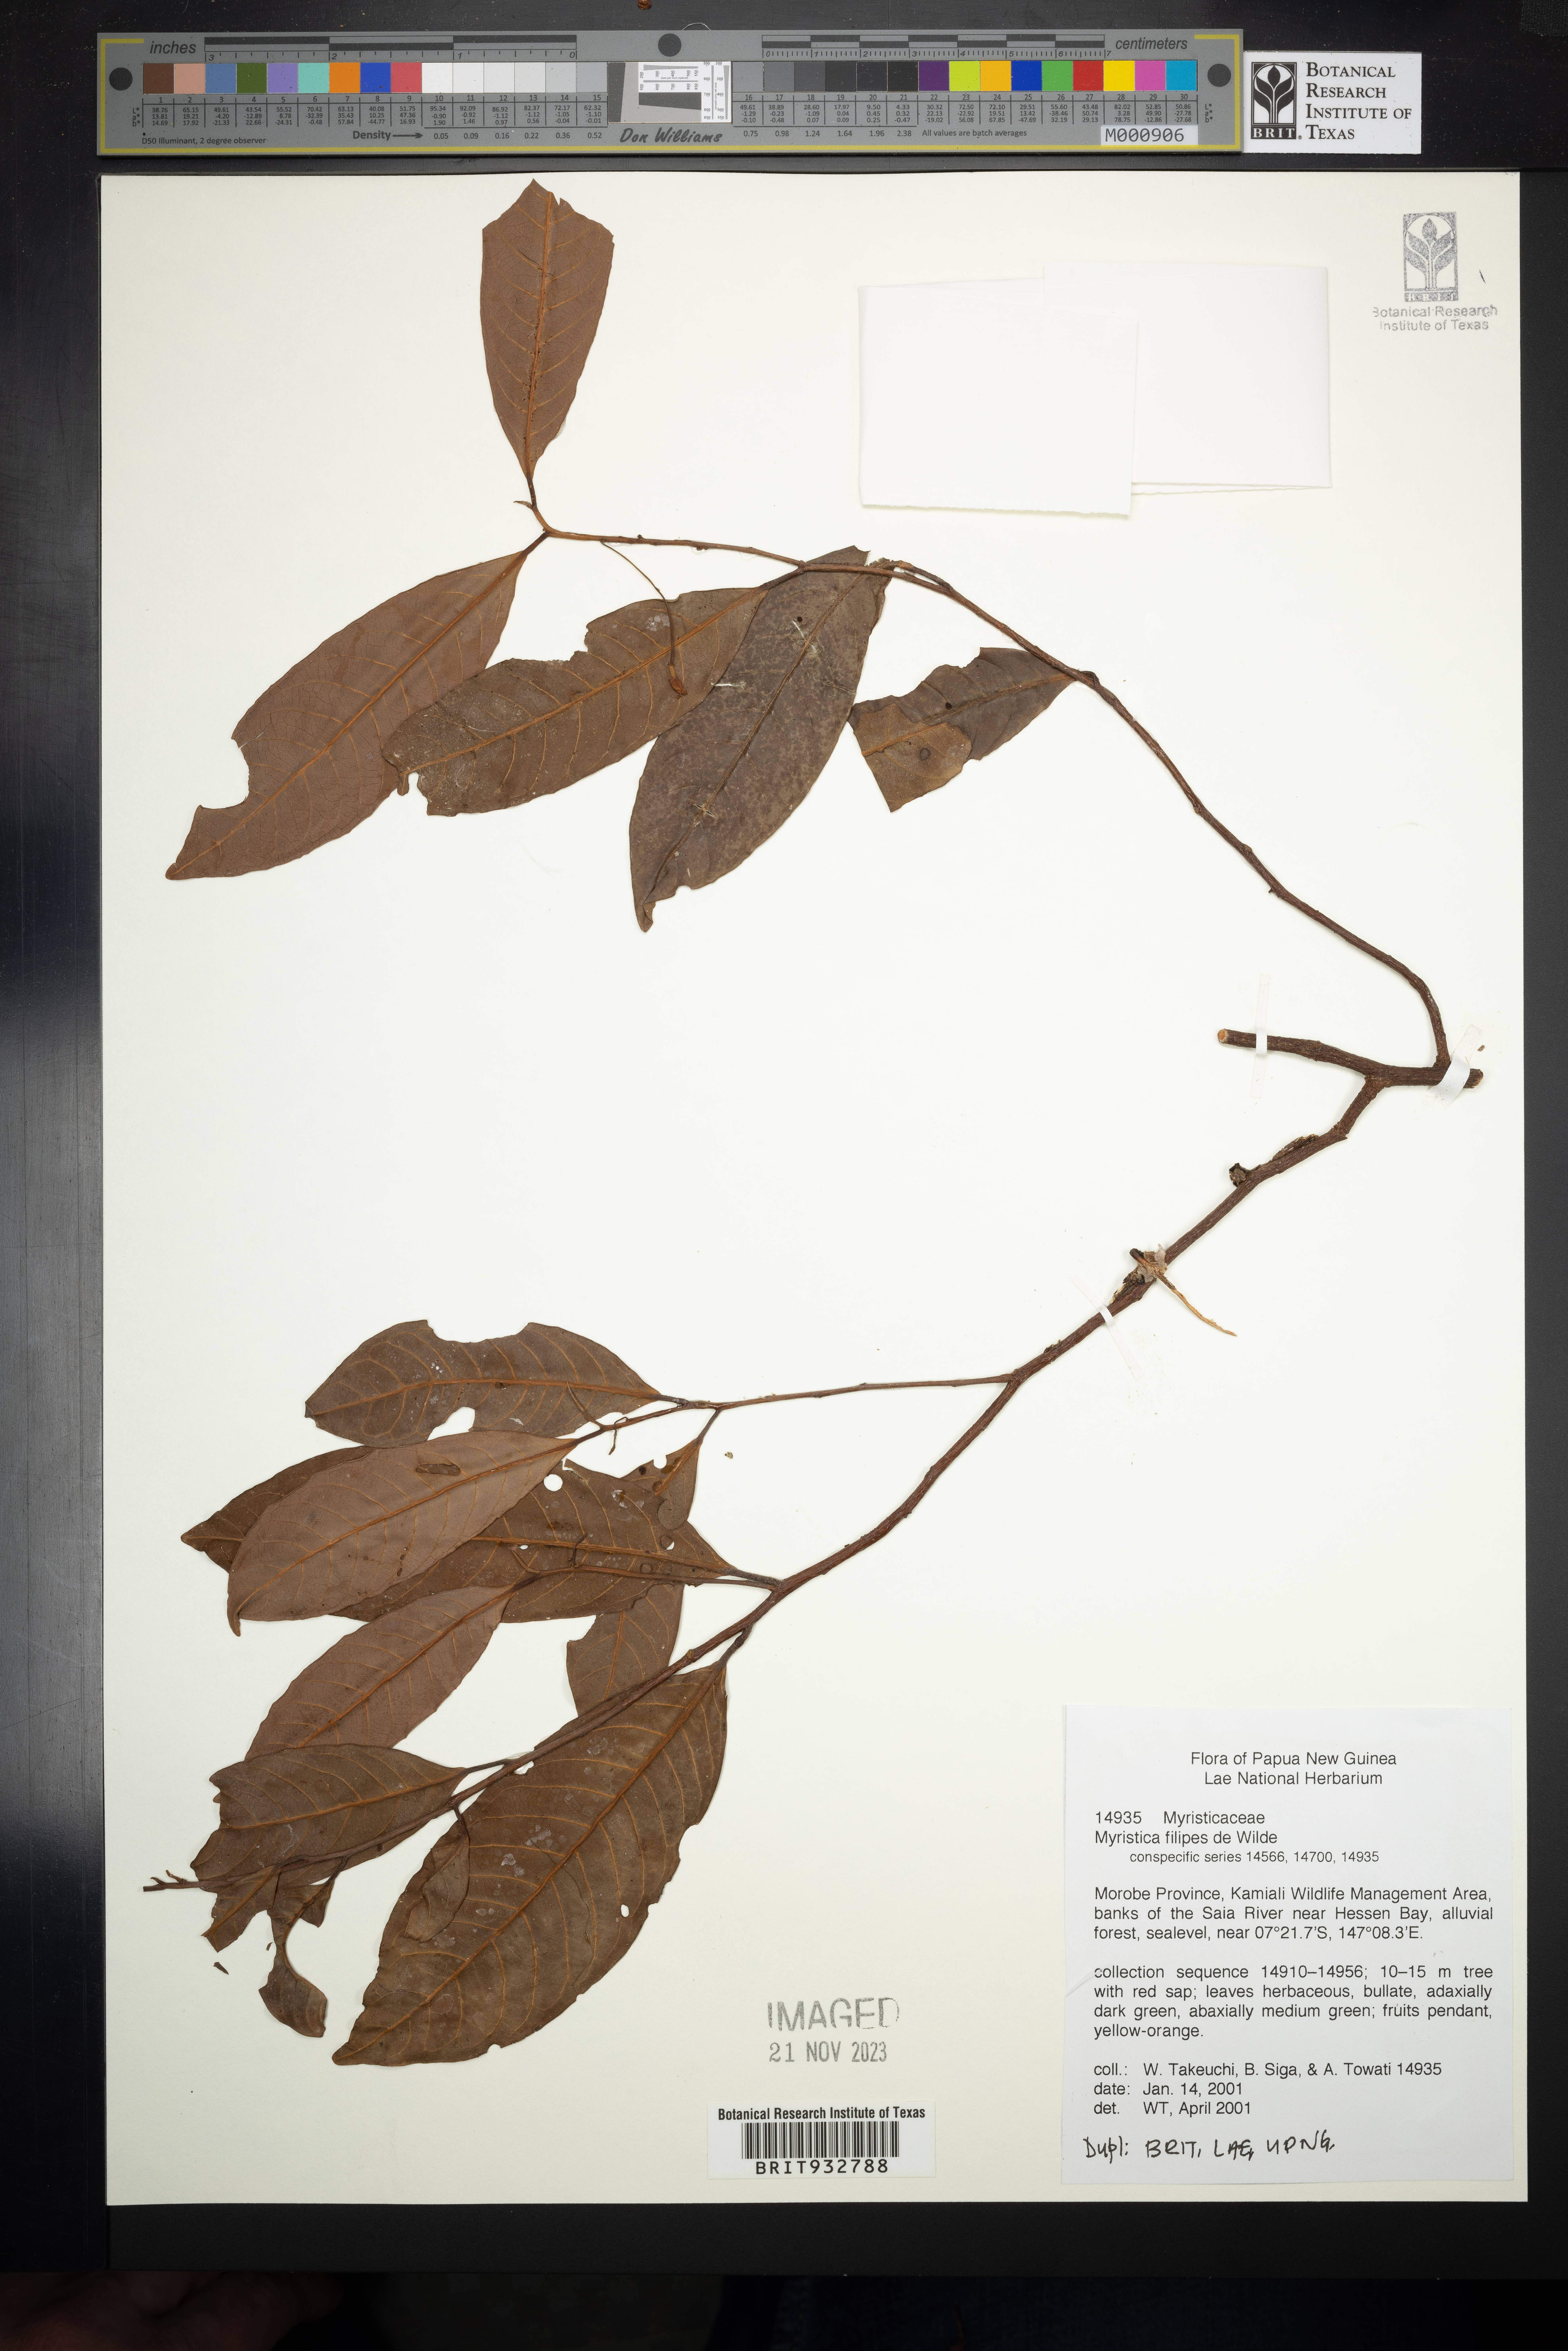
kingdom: Plantae
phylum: Tracheophyta
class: Magnoliopsida
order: Magnoliales
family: Myristicaceae
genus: Myristica
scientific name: Myristica
